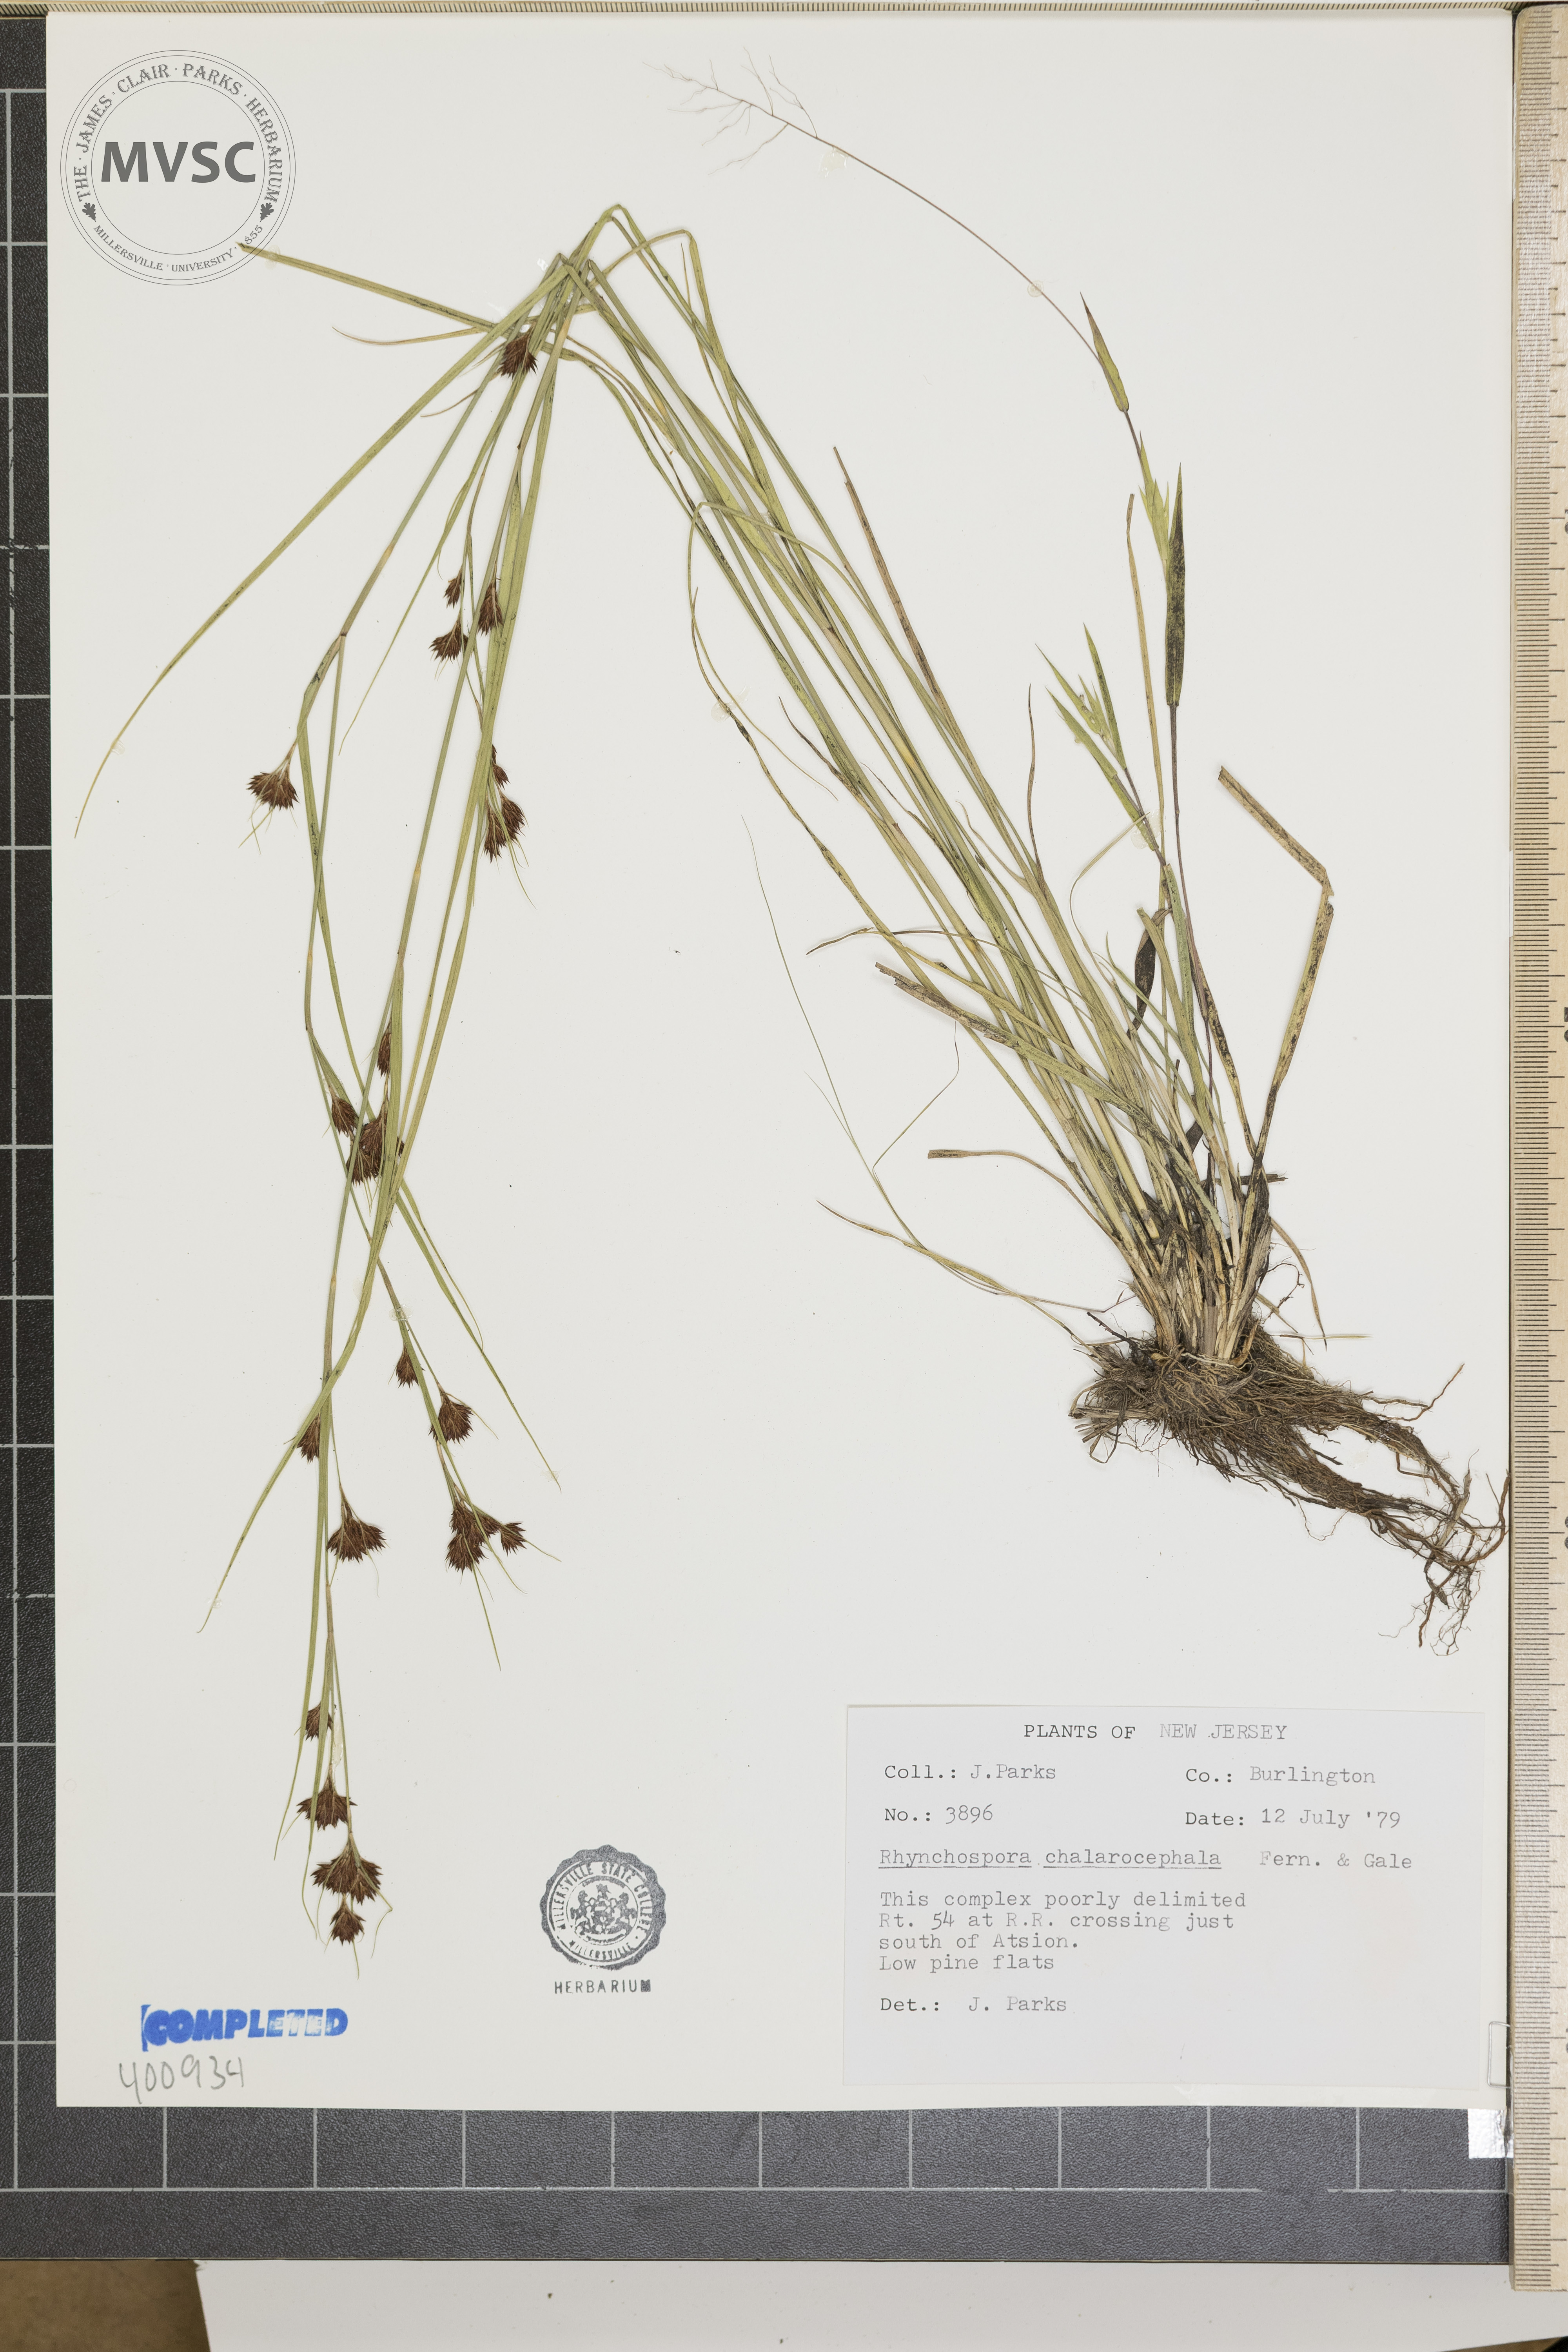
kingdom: Plantae
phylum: Tracheophyta
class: Liliopsida
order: Poales
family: Cyperaceae
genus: Rhynchospora
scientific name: Rhynchospora chalarocephala
